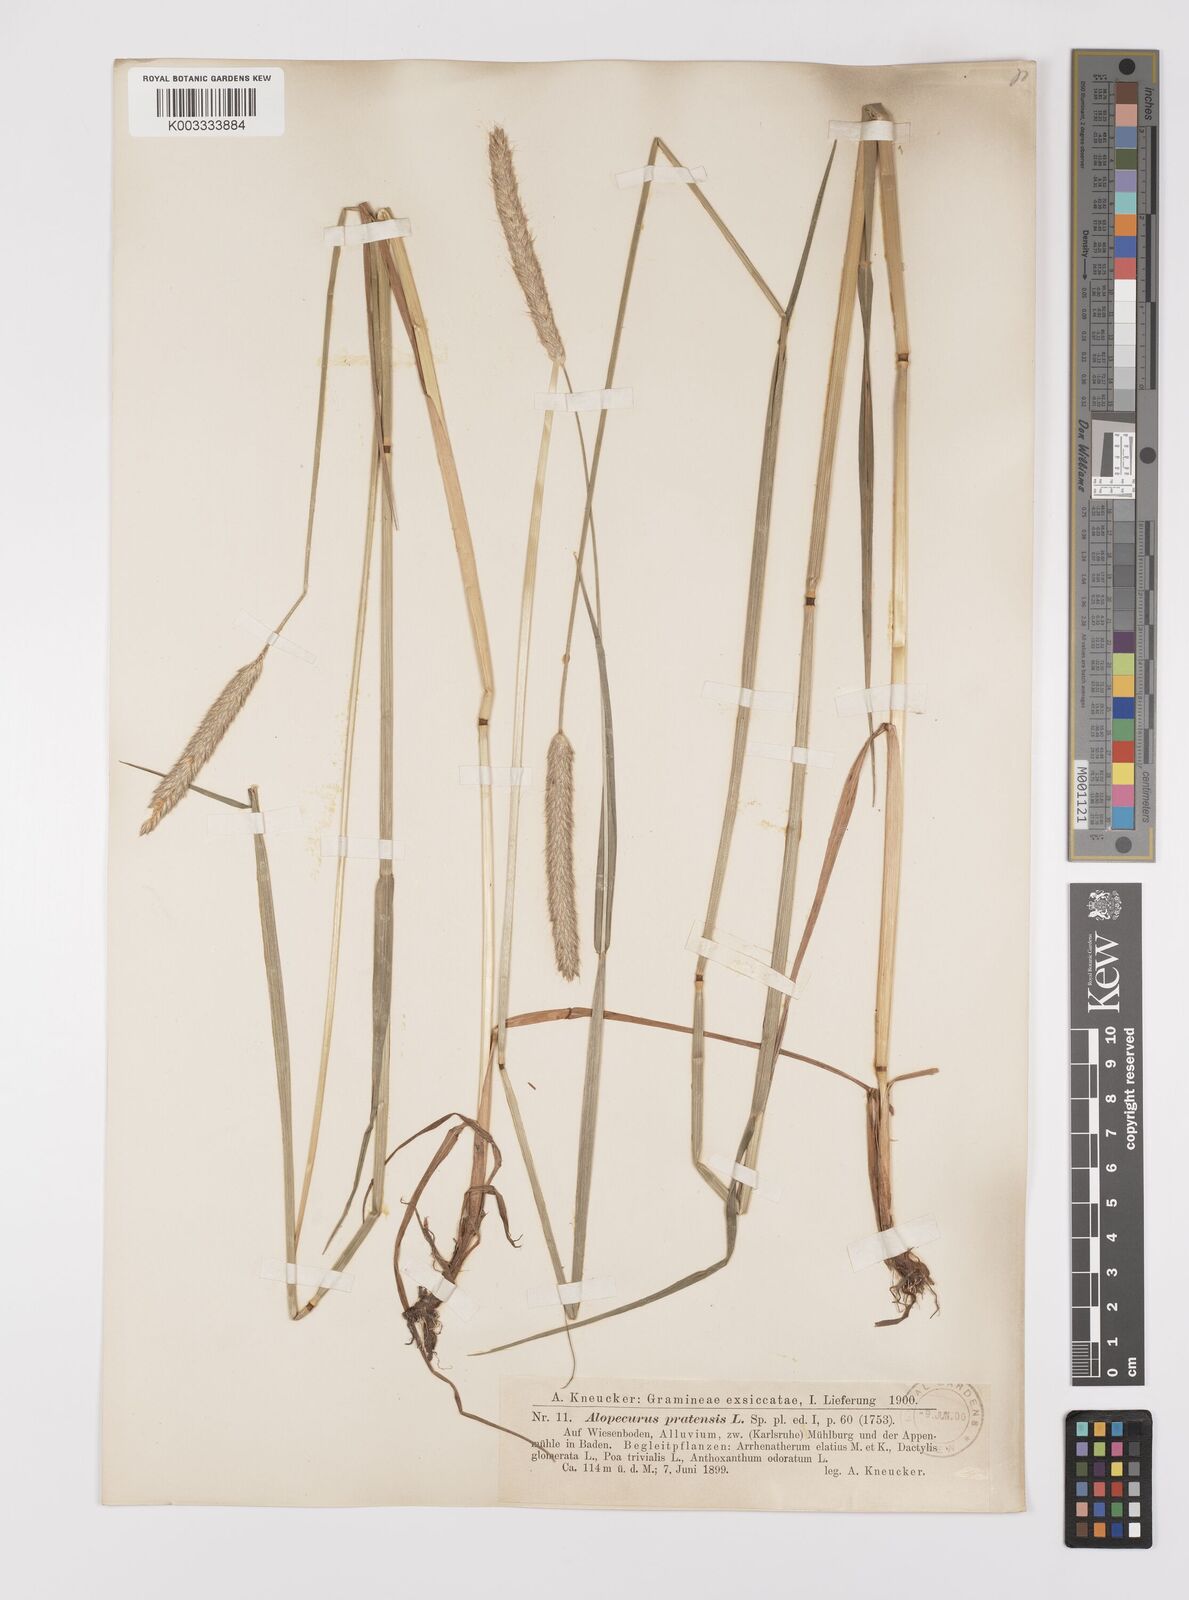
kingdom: Plantae
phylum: Tracheophyta
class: Liliopsida
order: Poales
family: Poaceae
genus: Alopecurus
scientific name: Alopecurus pratensis
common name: Meadow foxtail
